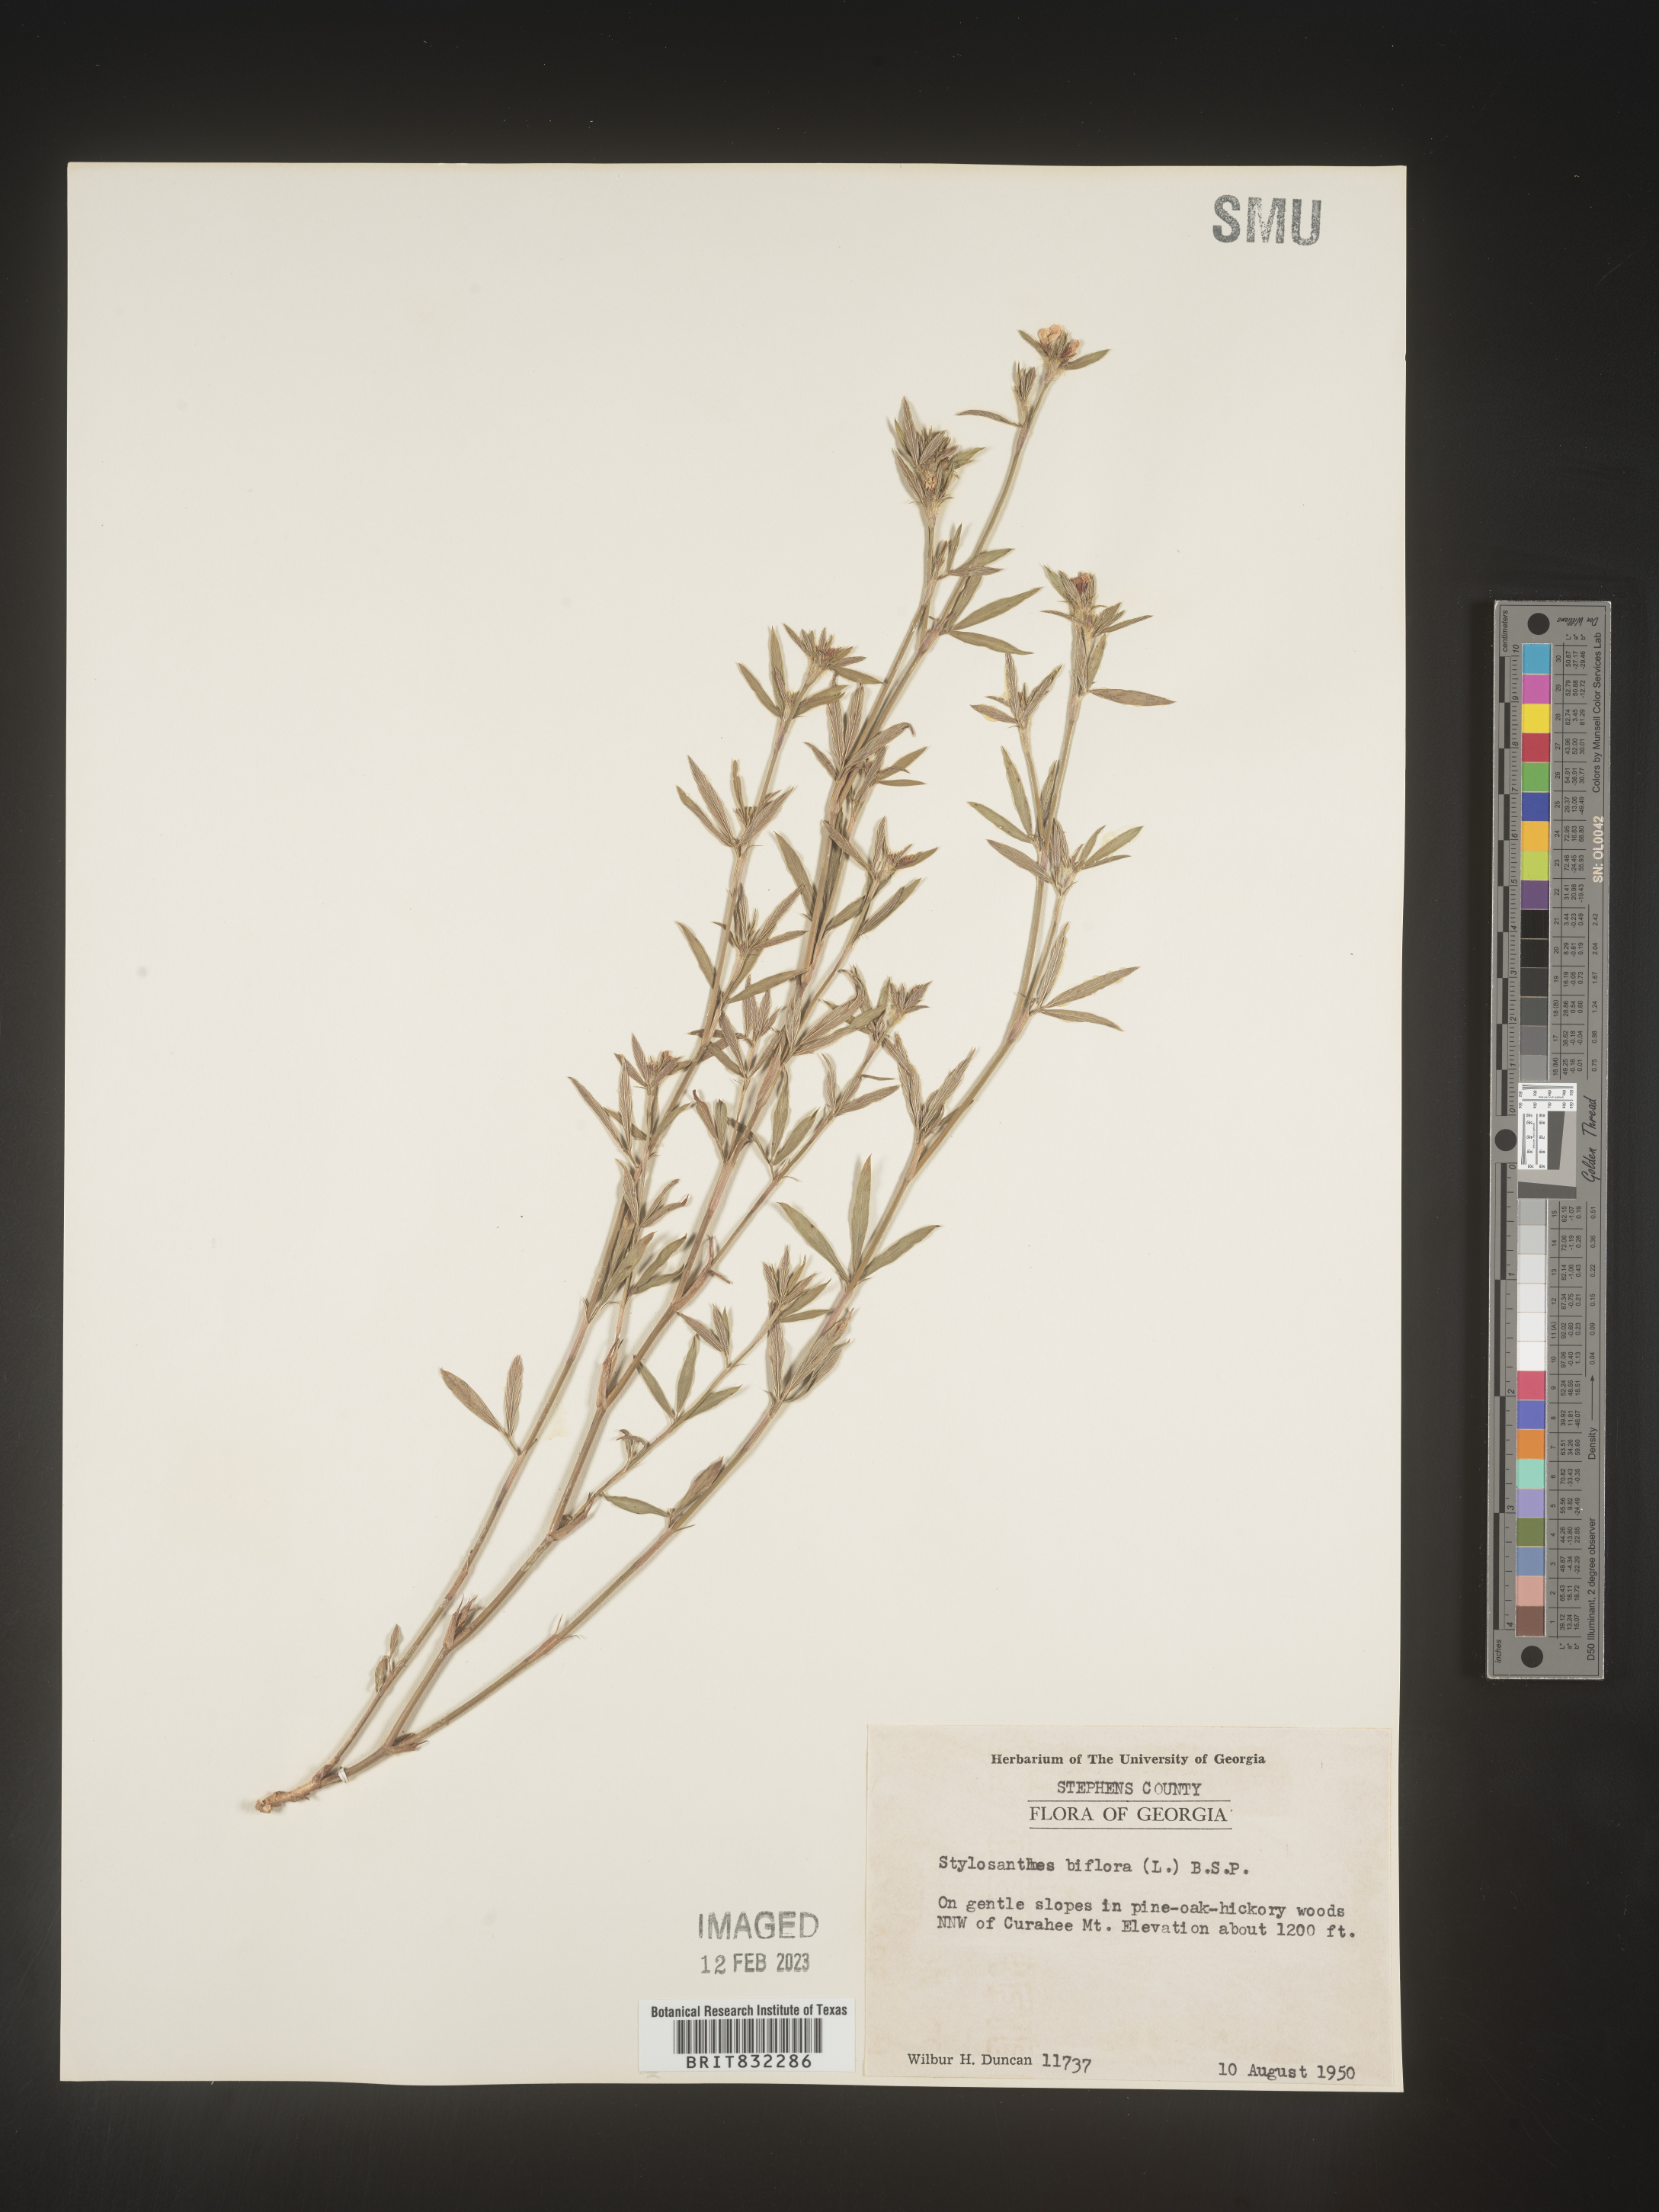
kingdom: Plantae
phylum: Tracheophyta
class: Magnoliopsida
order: Fabales
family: Fabaceae
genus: Stylosanthes
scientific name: Stylosanthes biflora
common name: Two-flower pencil-flower
